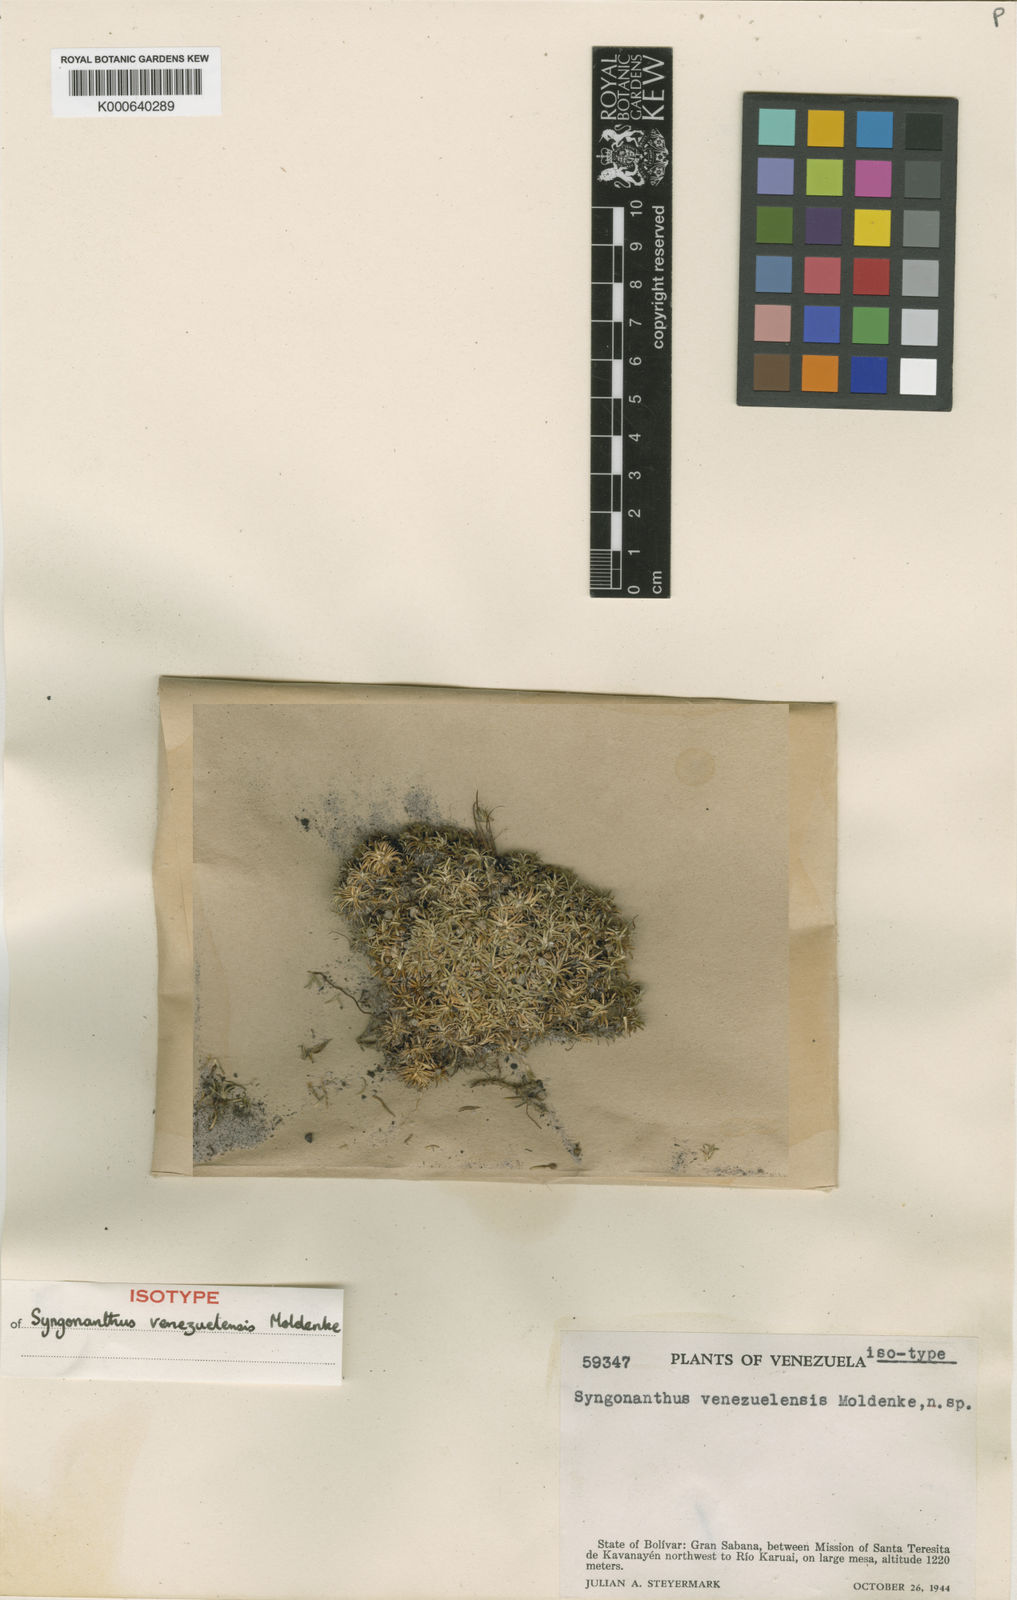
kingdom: Plantae
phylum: Tracheophyta
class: Liliopsida
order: Poales
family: Eriocaulaceae
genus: Paepalanthus
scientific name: Paepalanthus dichotomus
